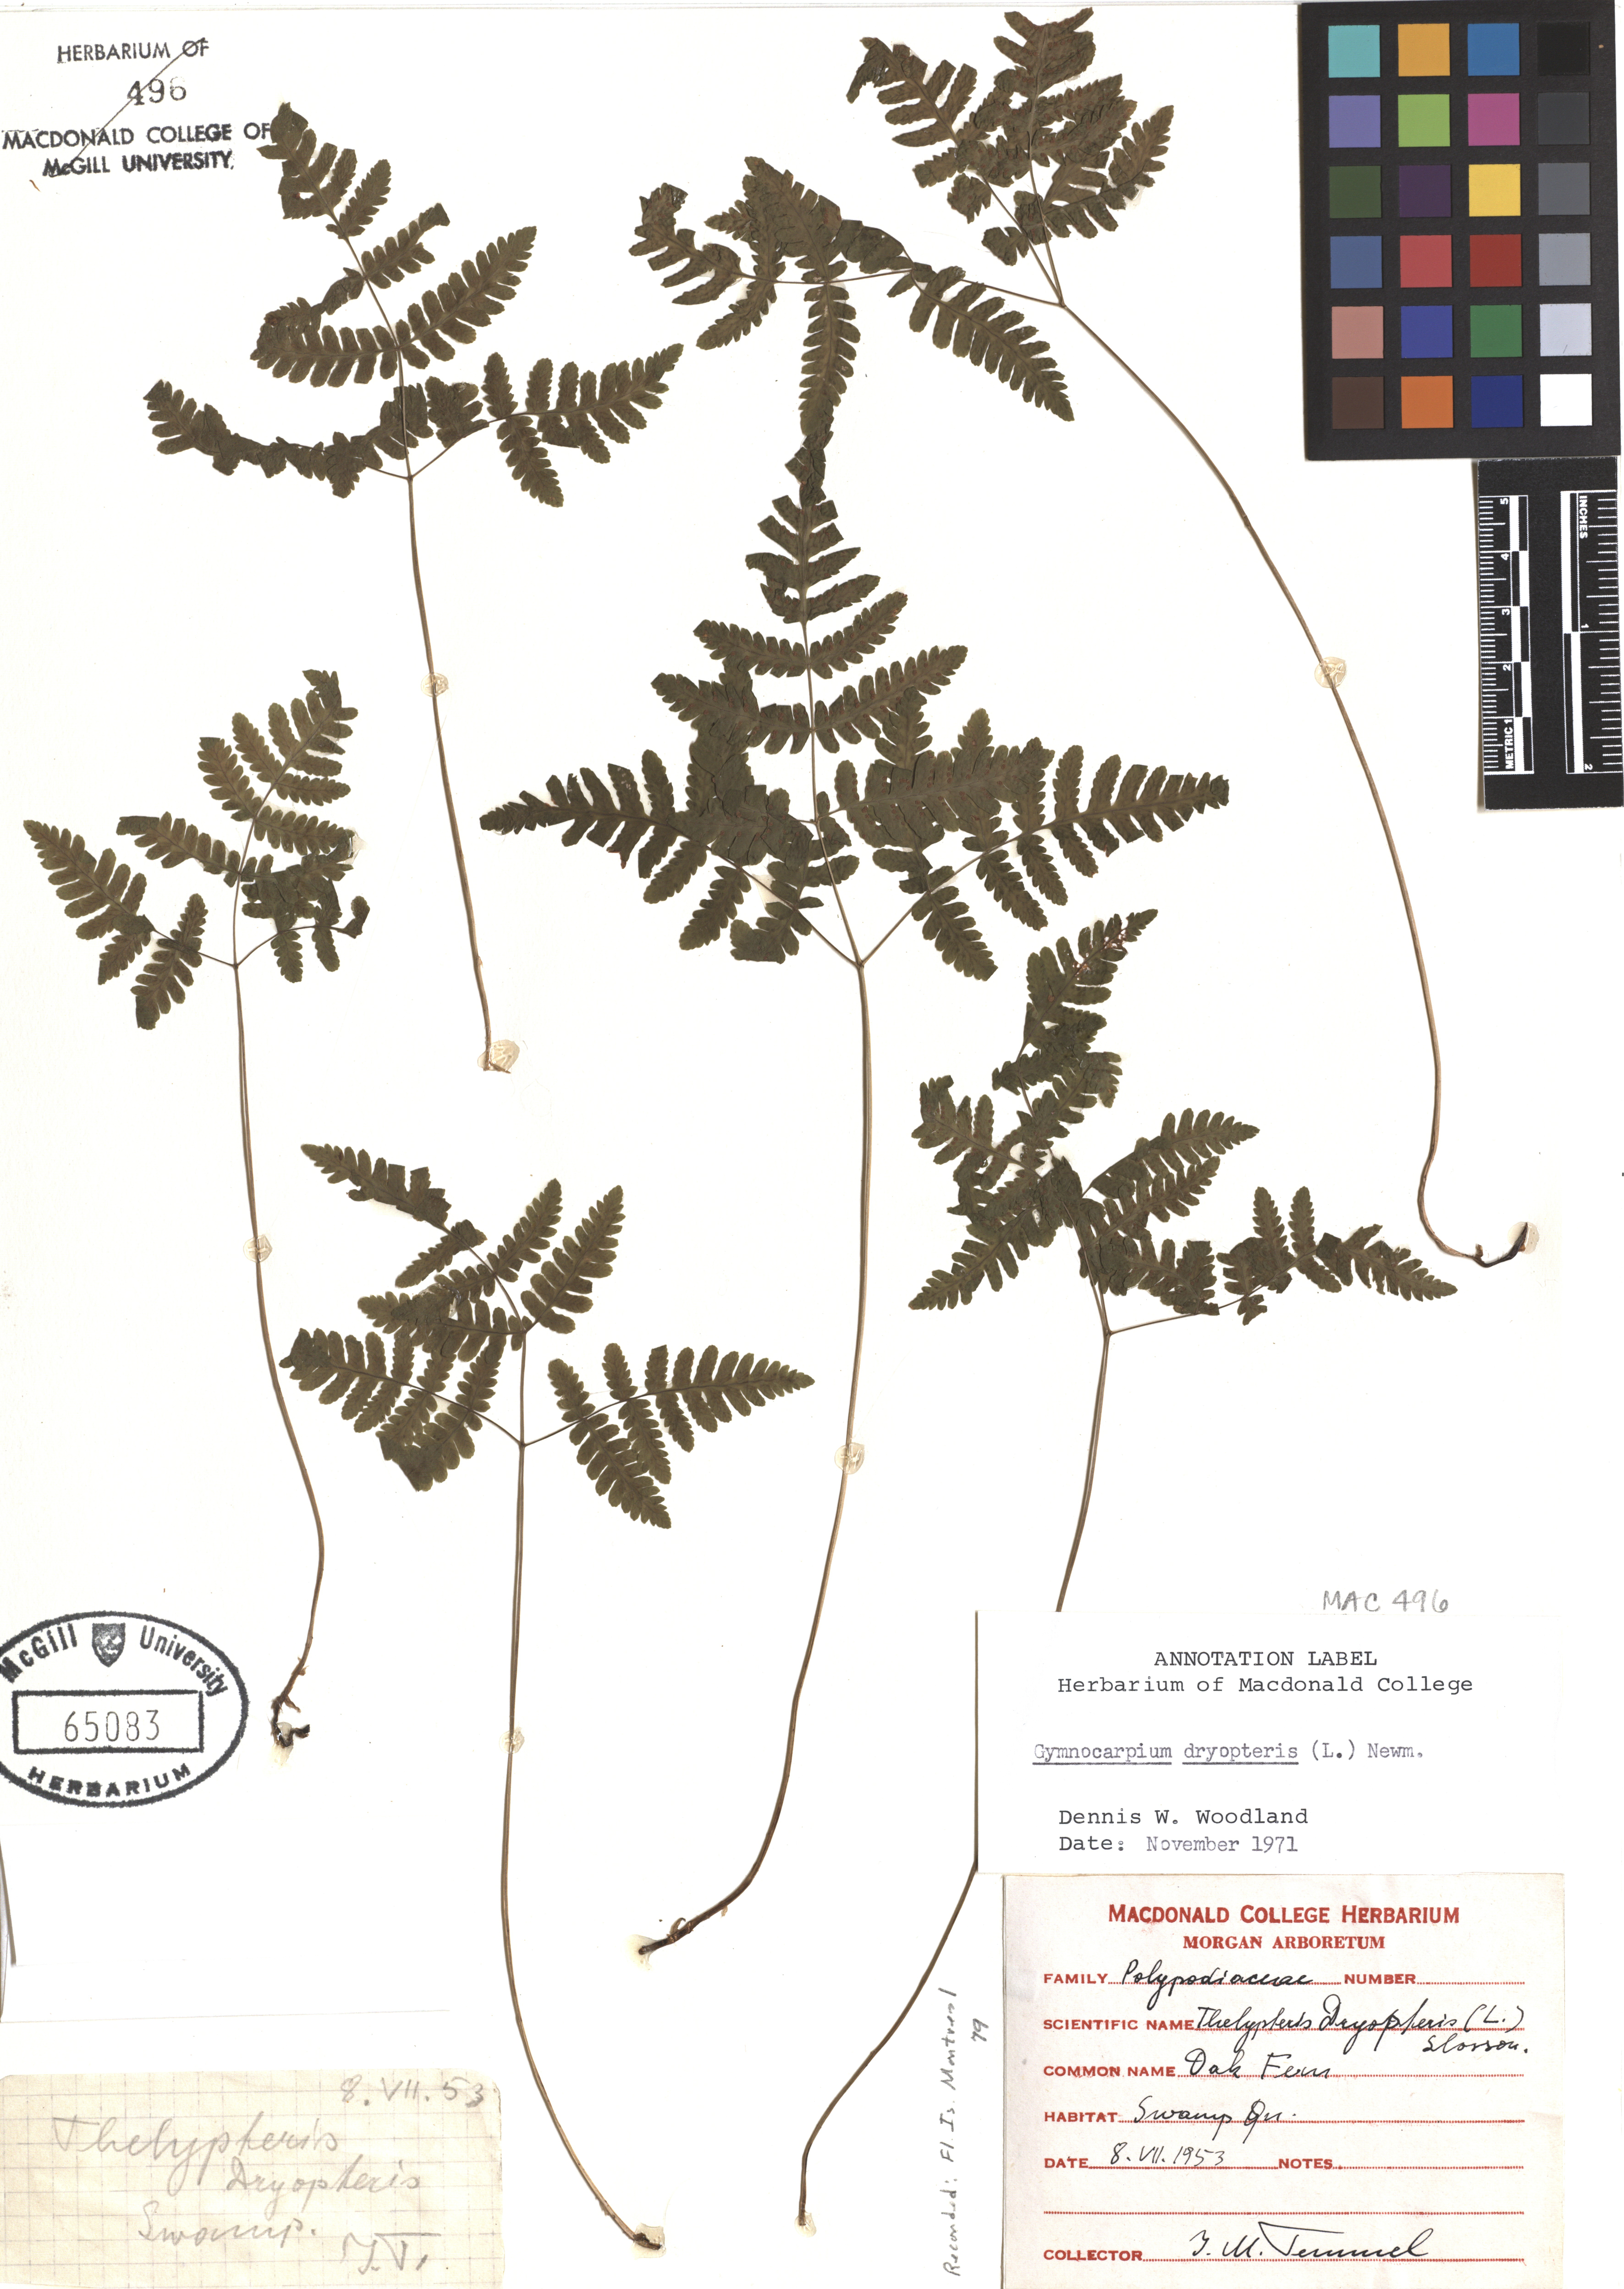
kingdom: Plantae
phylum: Tracheophyta
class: Polypodiopsida
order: Polypodiales
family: Cystopteridaceae
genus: Gymnocarpium
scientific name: Gymnocarpium dryopteris
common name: Oak fern
